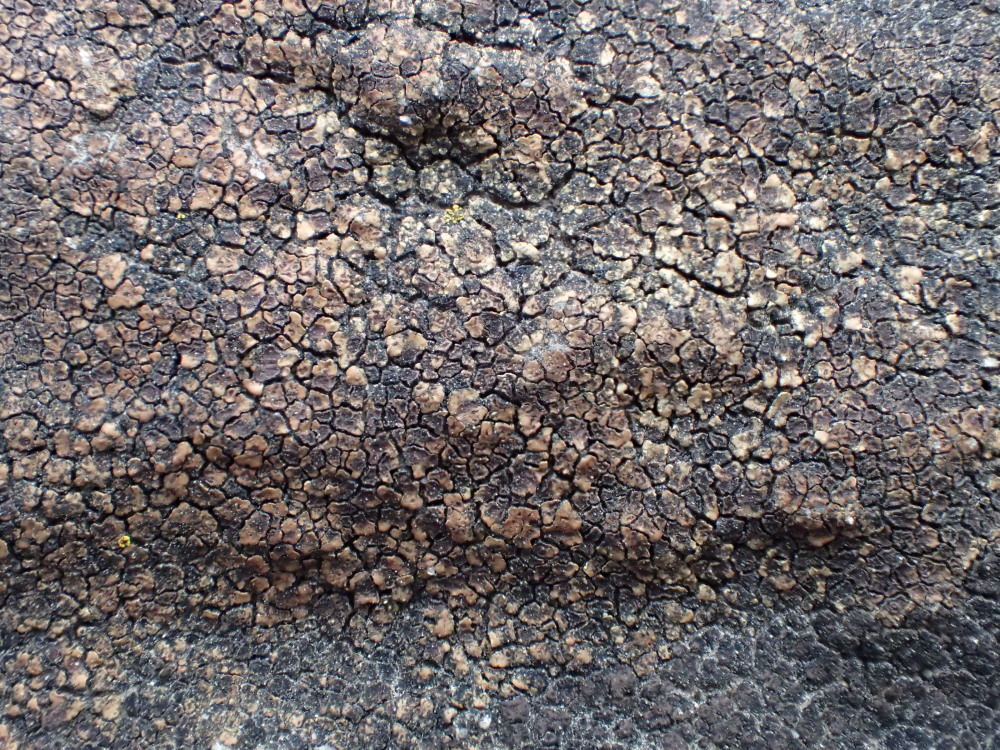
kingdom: Fungi
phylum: Ascomycota
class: Lecanoromycetes
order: Acarosporales
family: Acarosporaceae
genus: Acarospora
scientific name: Acarospora fuscata
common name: brun småsporelav
